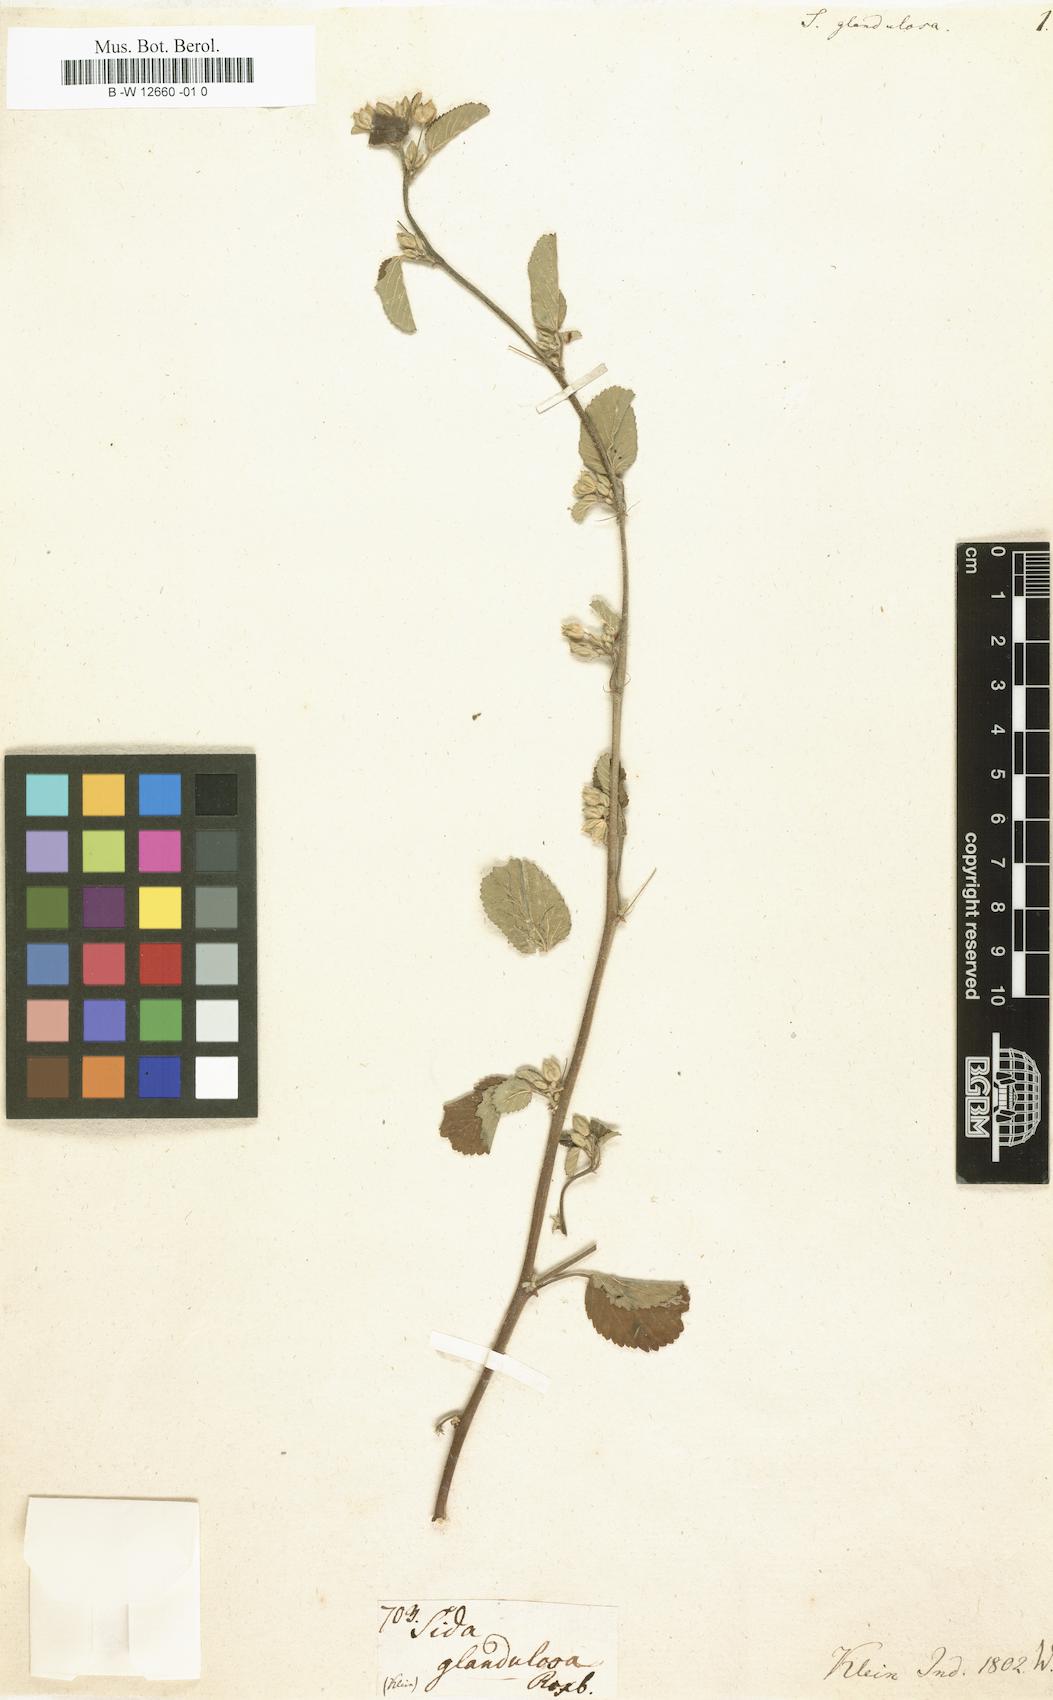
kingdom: Plantae
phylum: Tracheophyta
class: Magnoliopsida
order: Malvales
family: Malvaceae
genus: Sida
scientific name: Sida spinosa
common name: Prickly fanpetals
